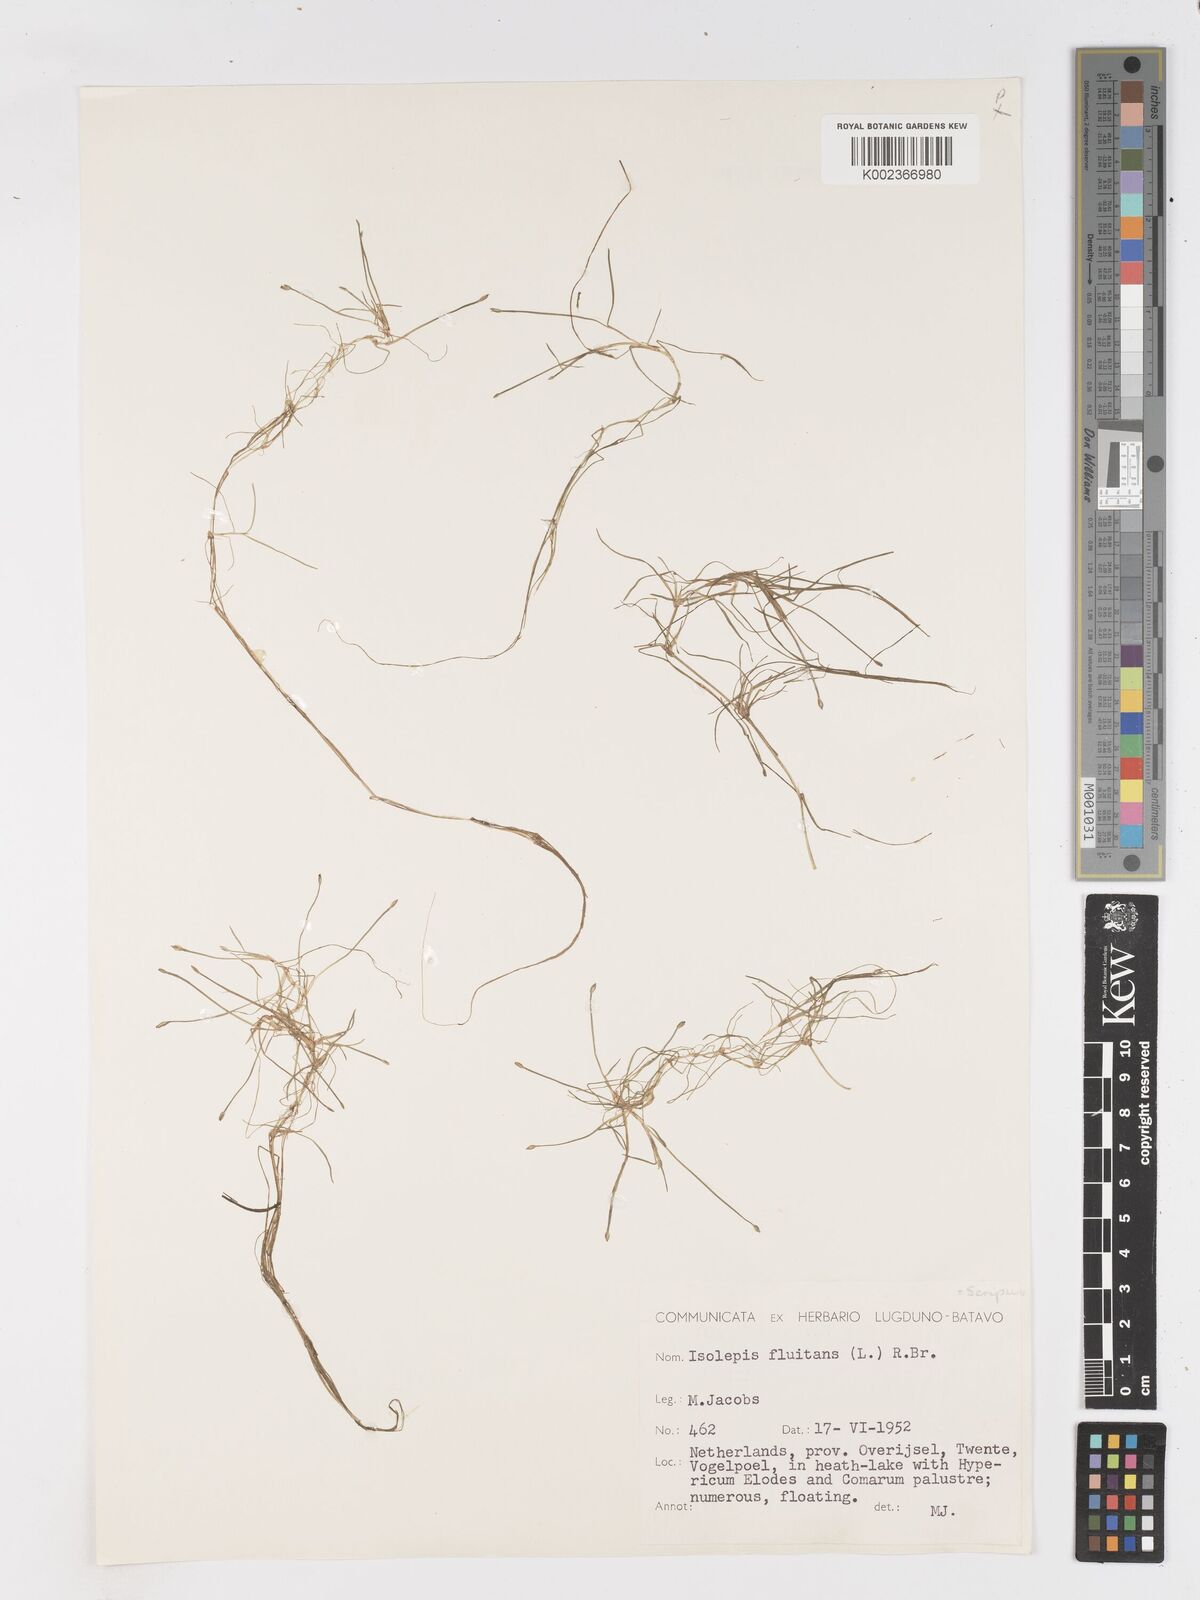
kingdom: Plantae
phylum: Tracheophyta
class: Liliopsida
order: Poales
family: Cyperaceae
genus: Isolepis
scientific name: Isolepis fluitans
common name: Floating club-rush
